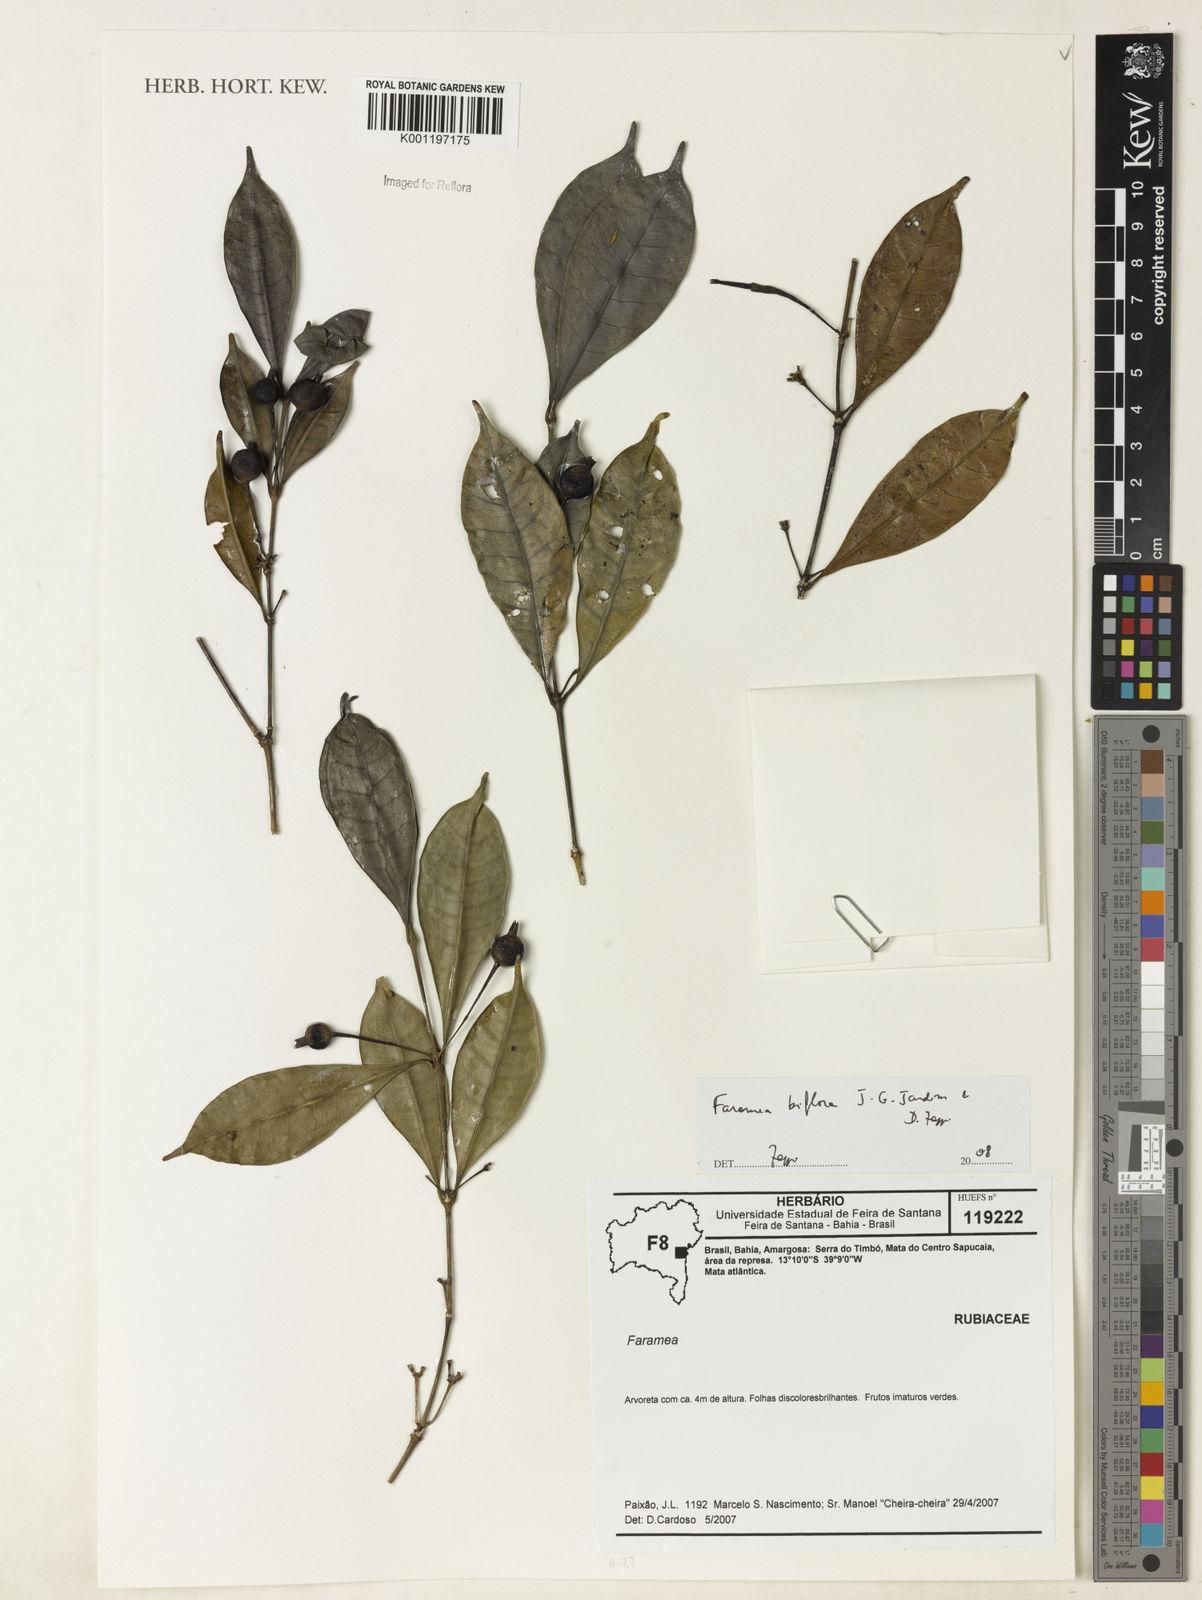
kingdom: Plantae
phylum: Tracheophyta
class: Magnoliopsida
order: Gentianales
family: Rubiaceae
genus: Faramea
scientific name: Faramea biflora
